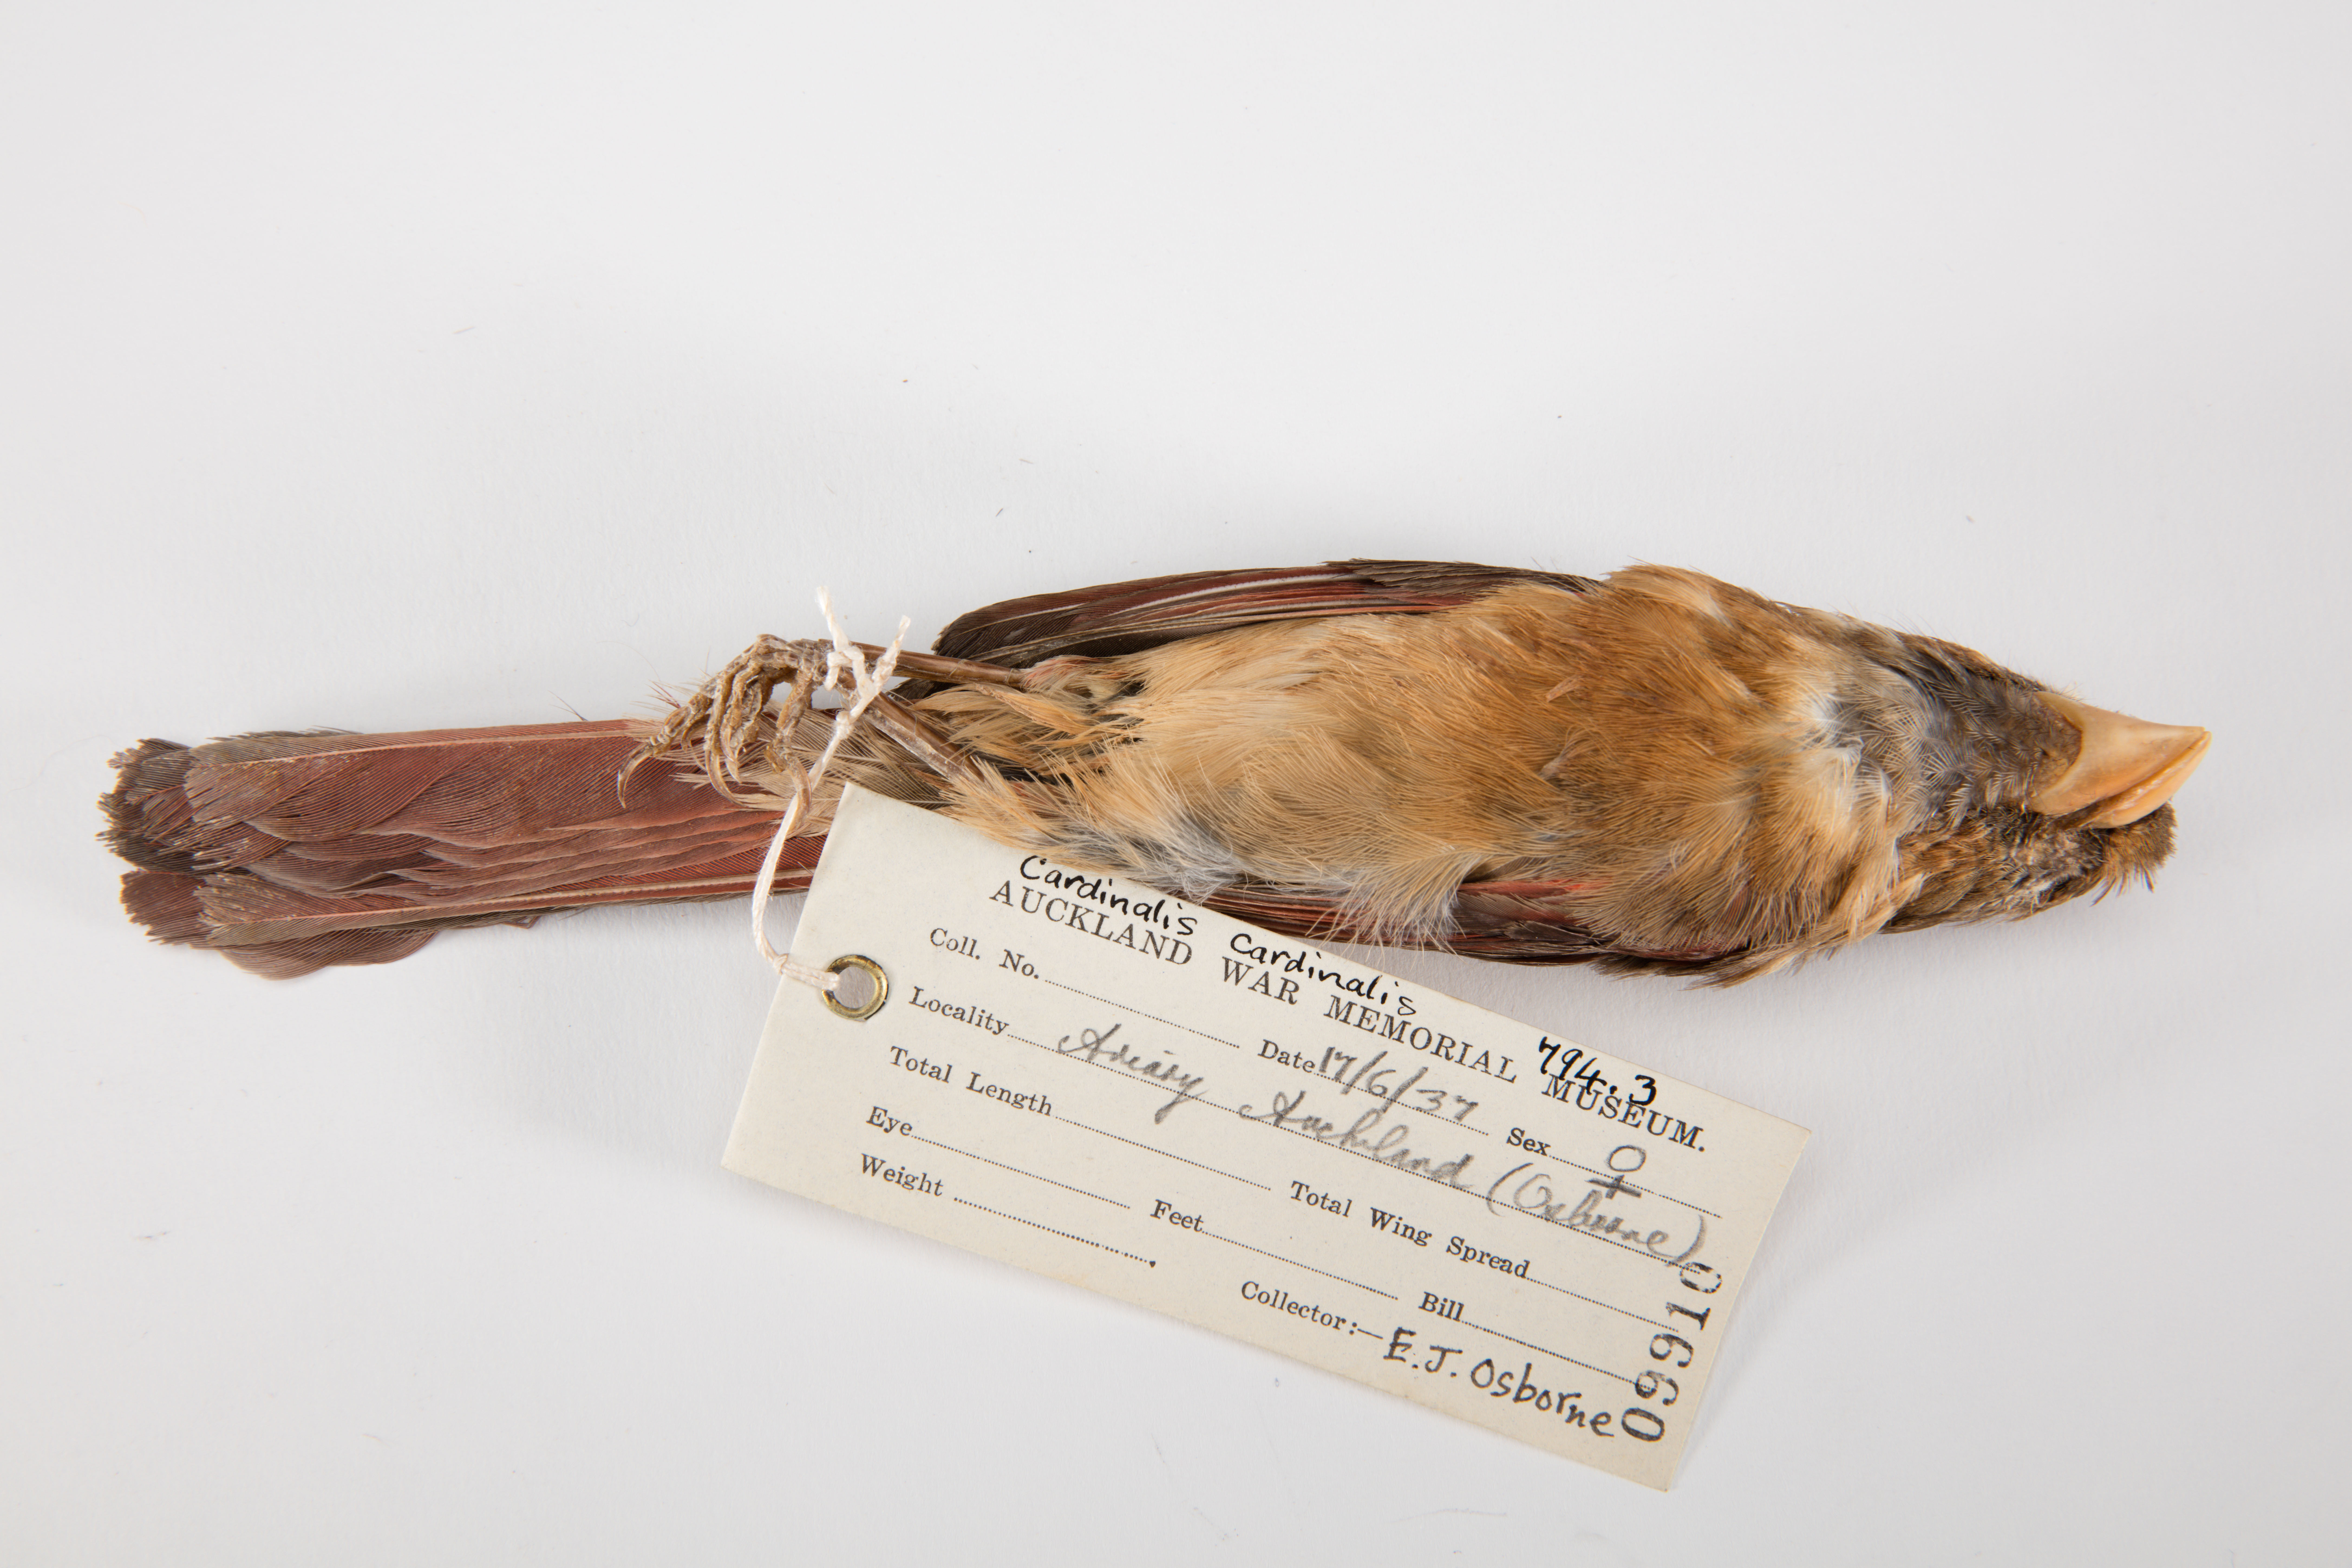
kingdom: Animalia
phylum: Chordata
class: Aves
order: Passeriformes
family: Cardinalidae
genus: Cardinalis
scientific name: Cardinalis cardinalis
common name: Northern cardinal
